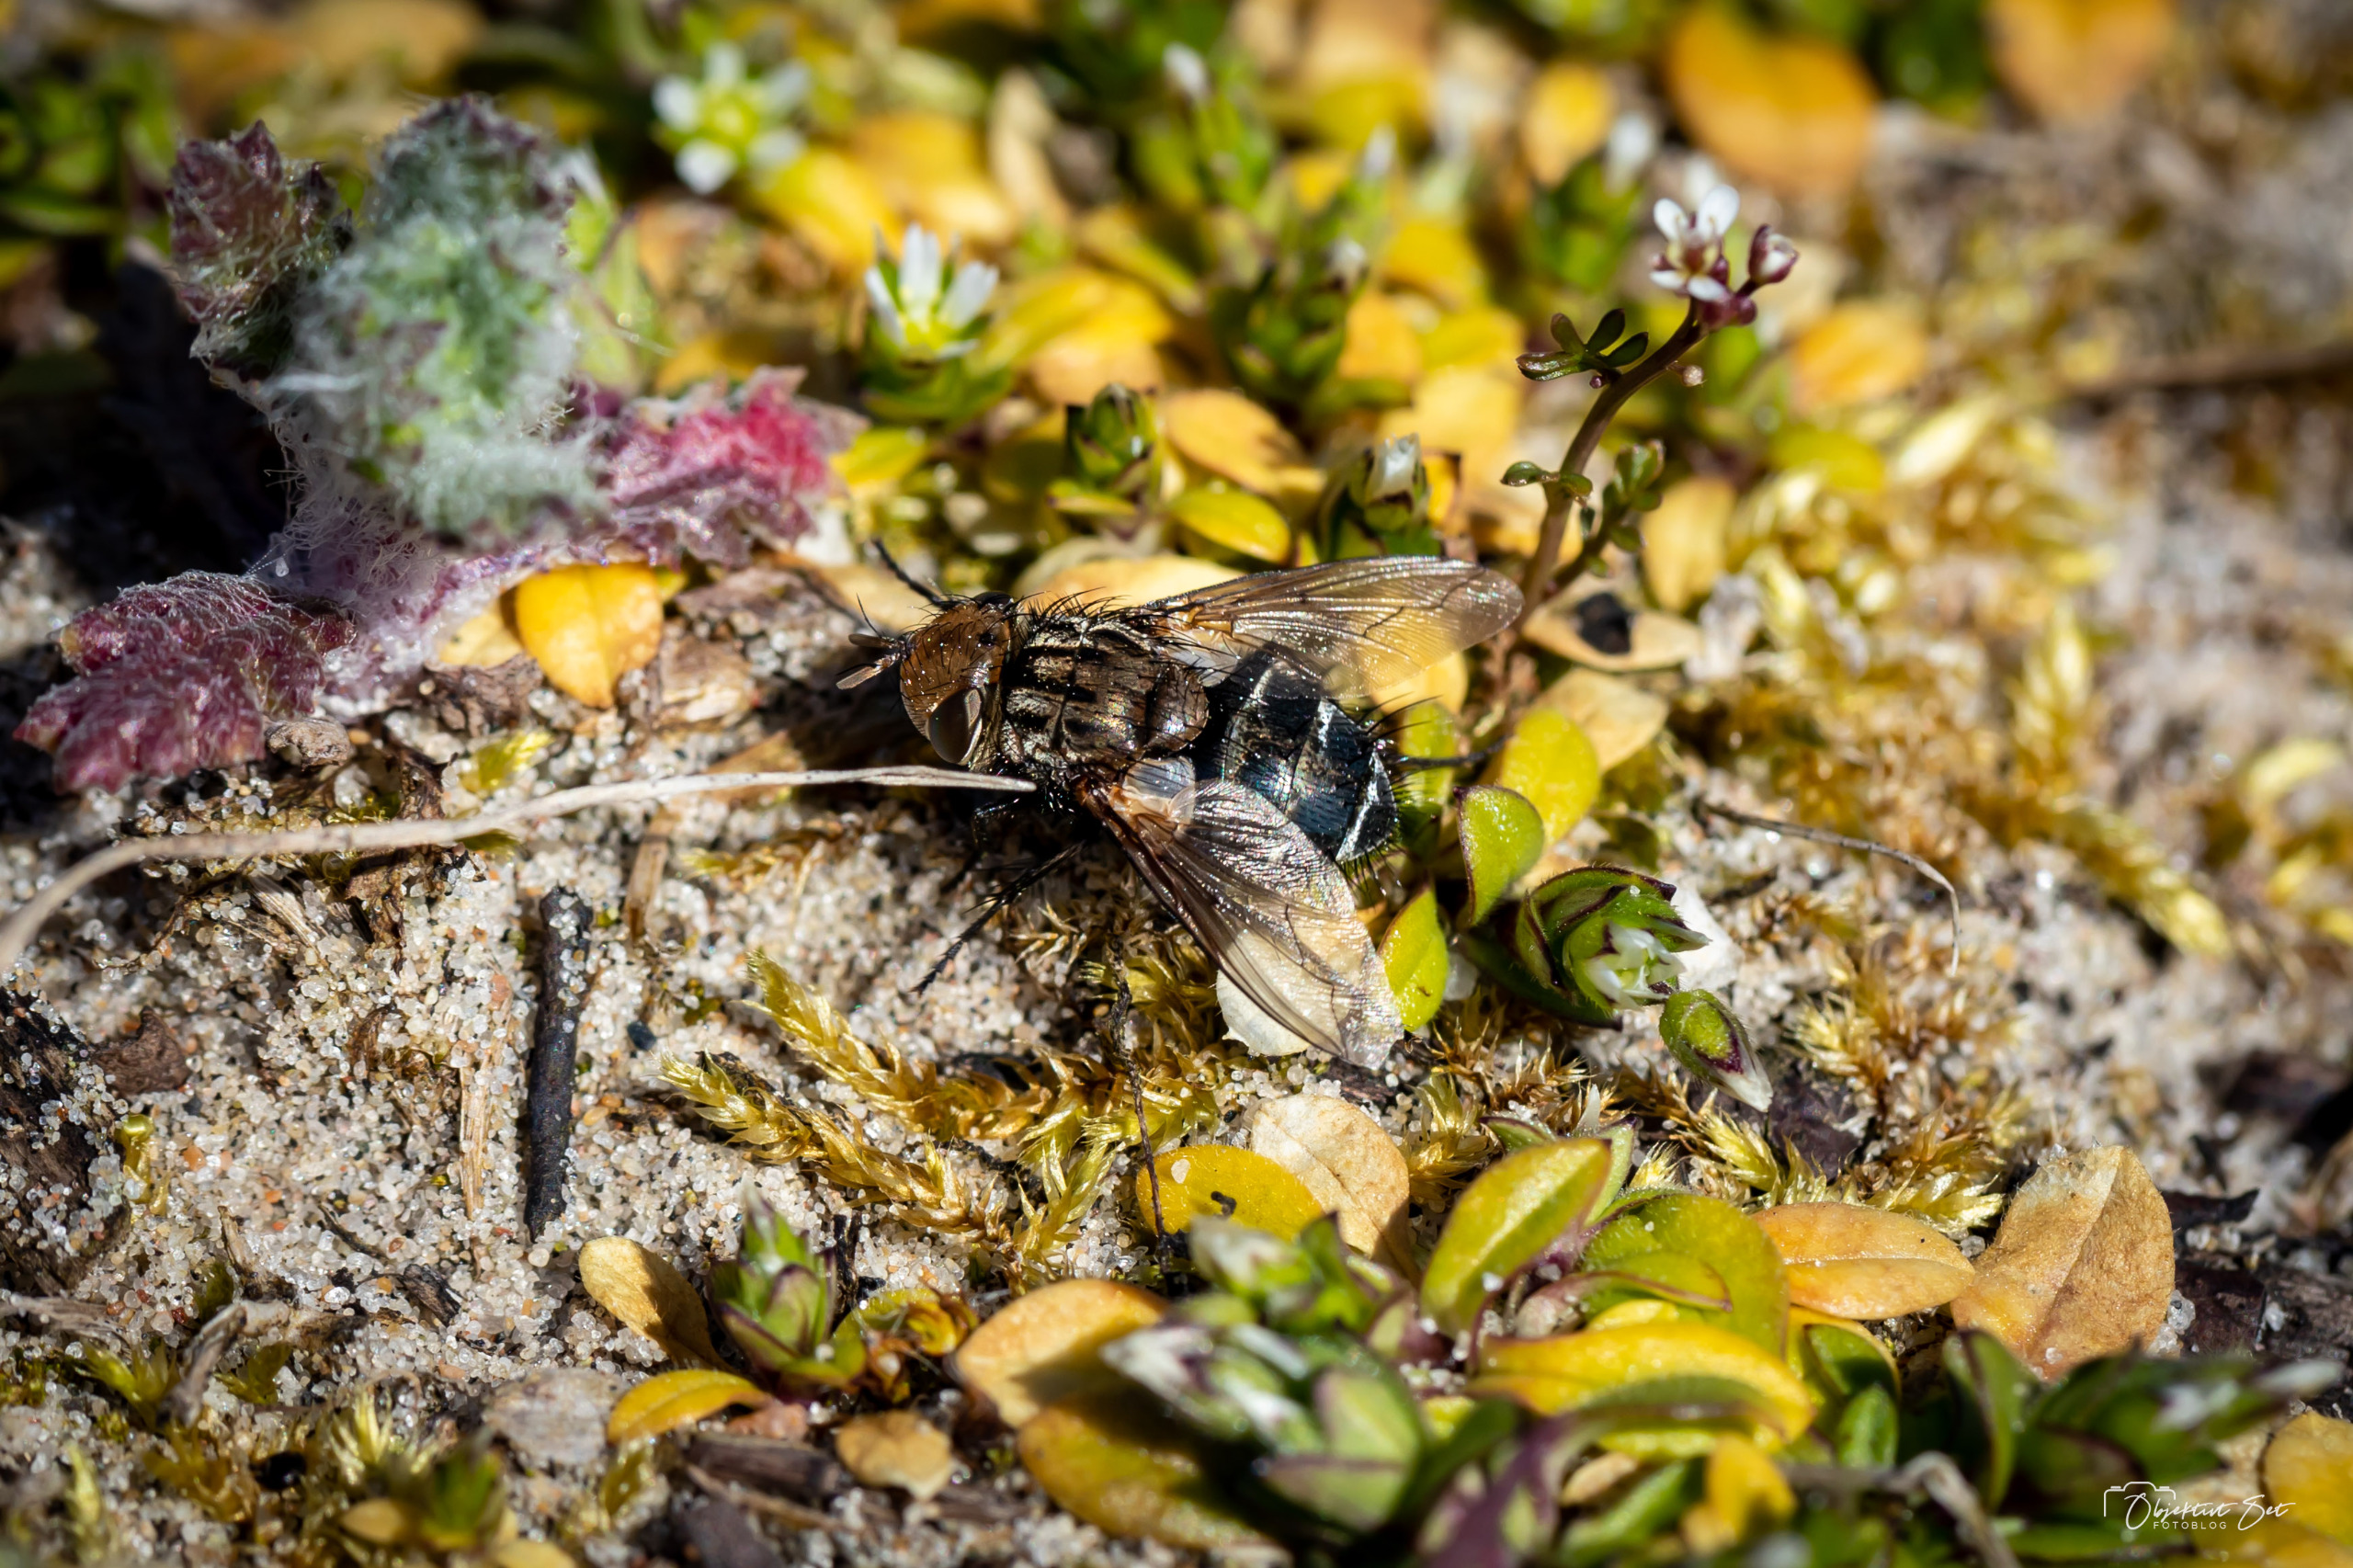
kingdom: Animalia
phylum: Arthropoda
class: Insecta
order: Diptera
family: Tachinidae
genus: Gonia
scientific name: Gonia picea
